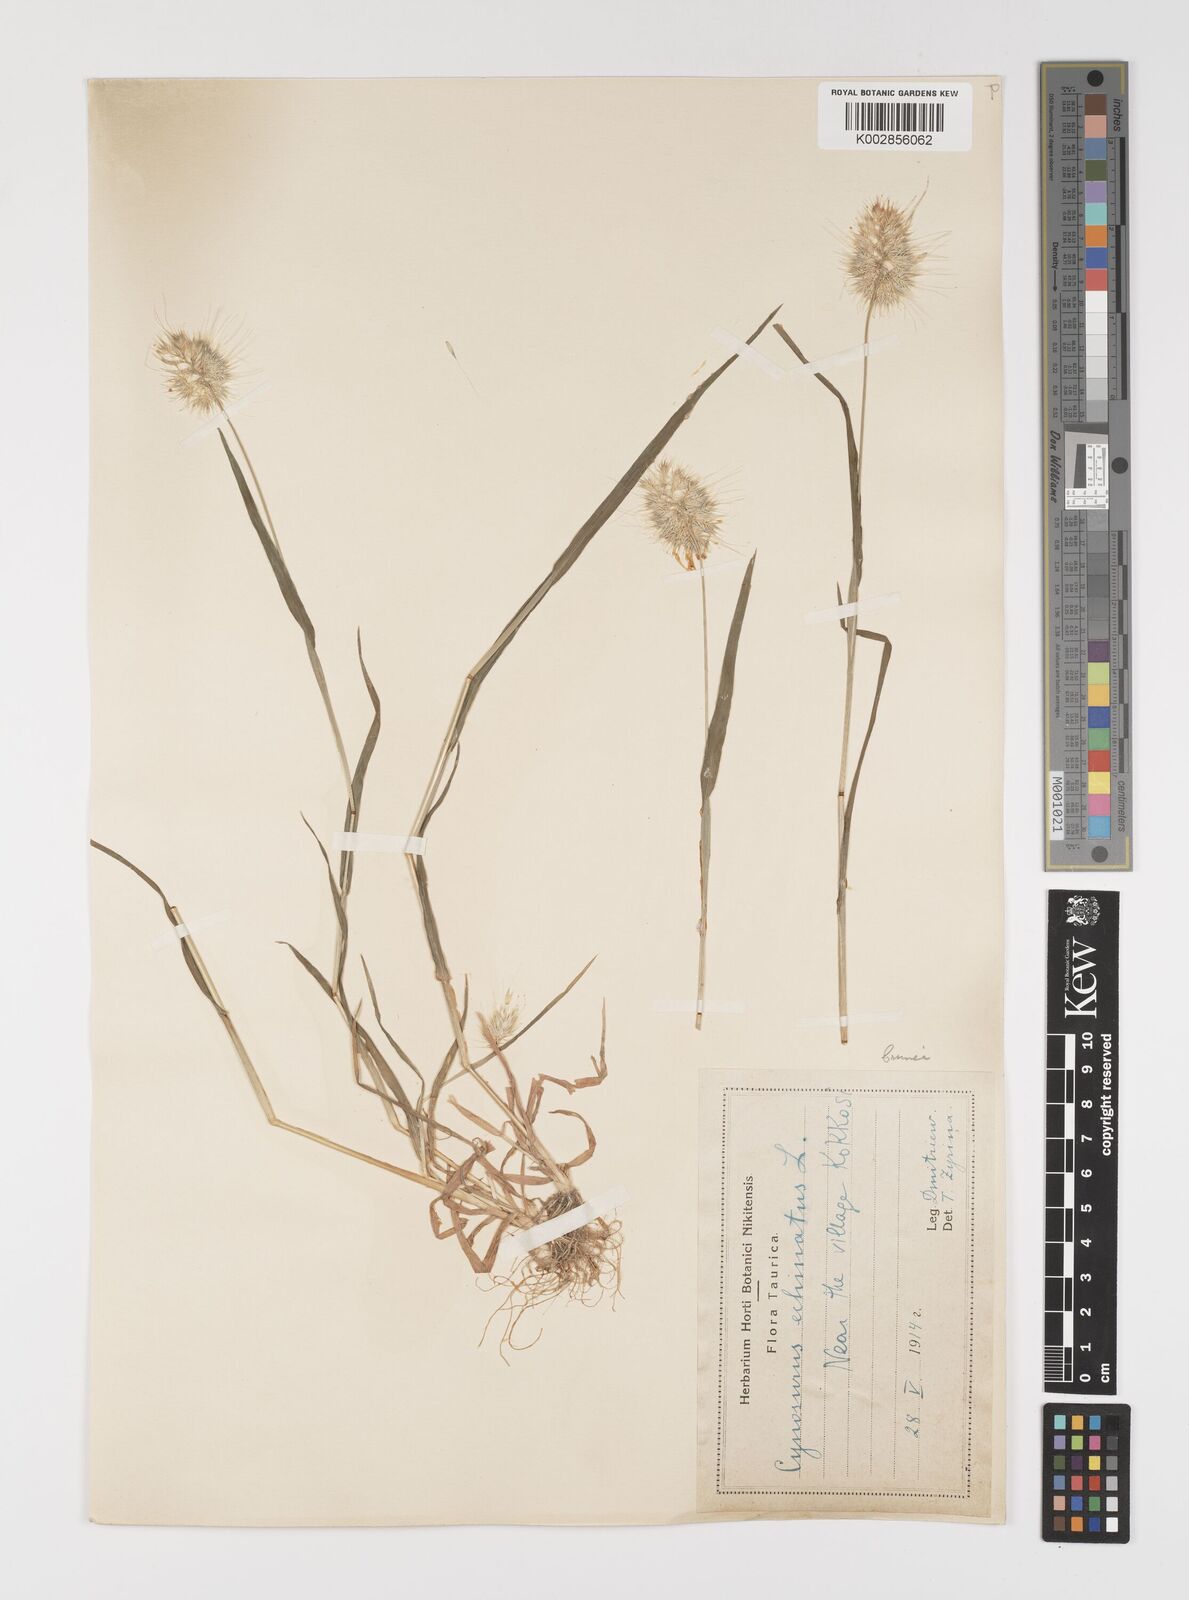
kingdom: Plantae
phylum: Tracheophyta
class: Liliopsida
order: Poales
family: Poaceae
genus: Cynosurus
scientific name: Cynosurus echinatus
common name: Rough dog's-tail
